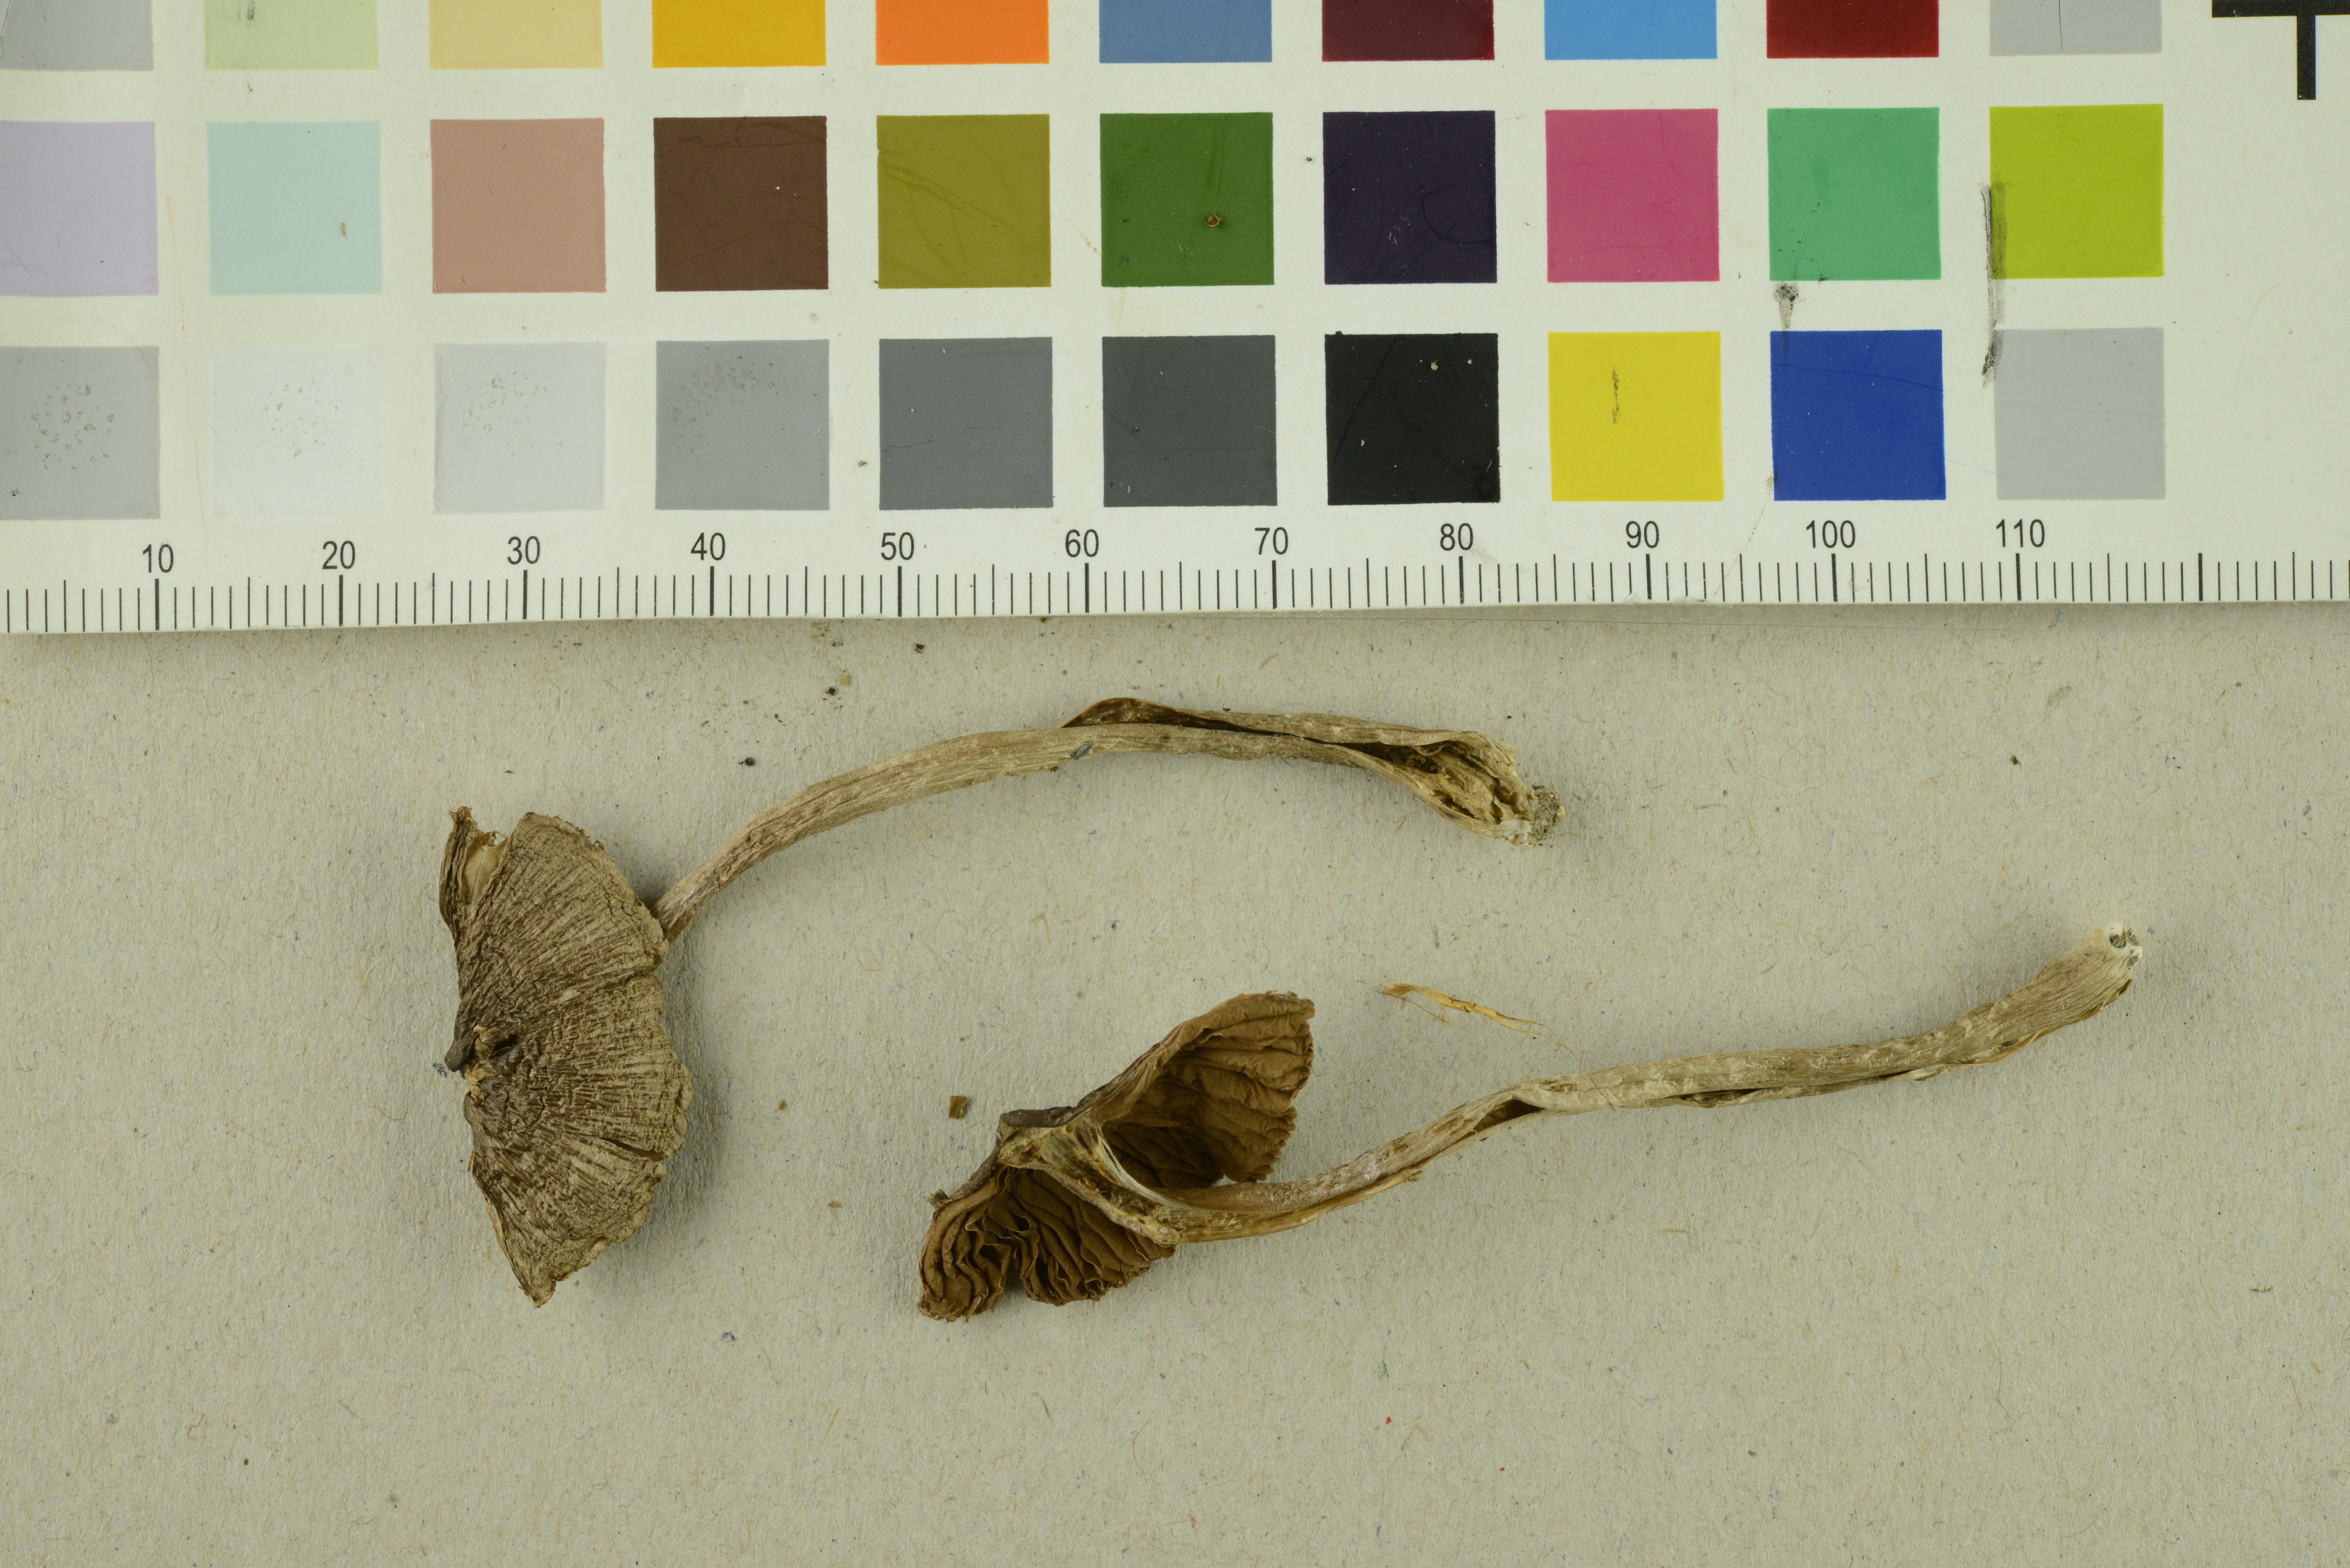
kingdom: Fungi
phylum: Basidiomycota
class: Agaricomycetes
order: Agaricales
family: Inocybaceae
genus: Inocybe
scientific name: Inocybe proximella
